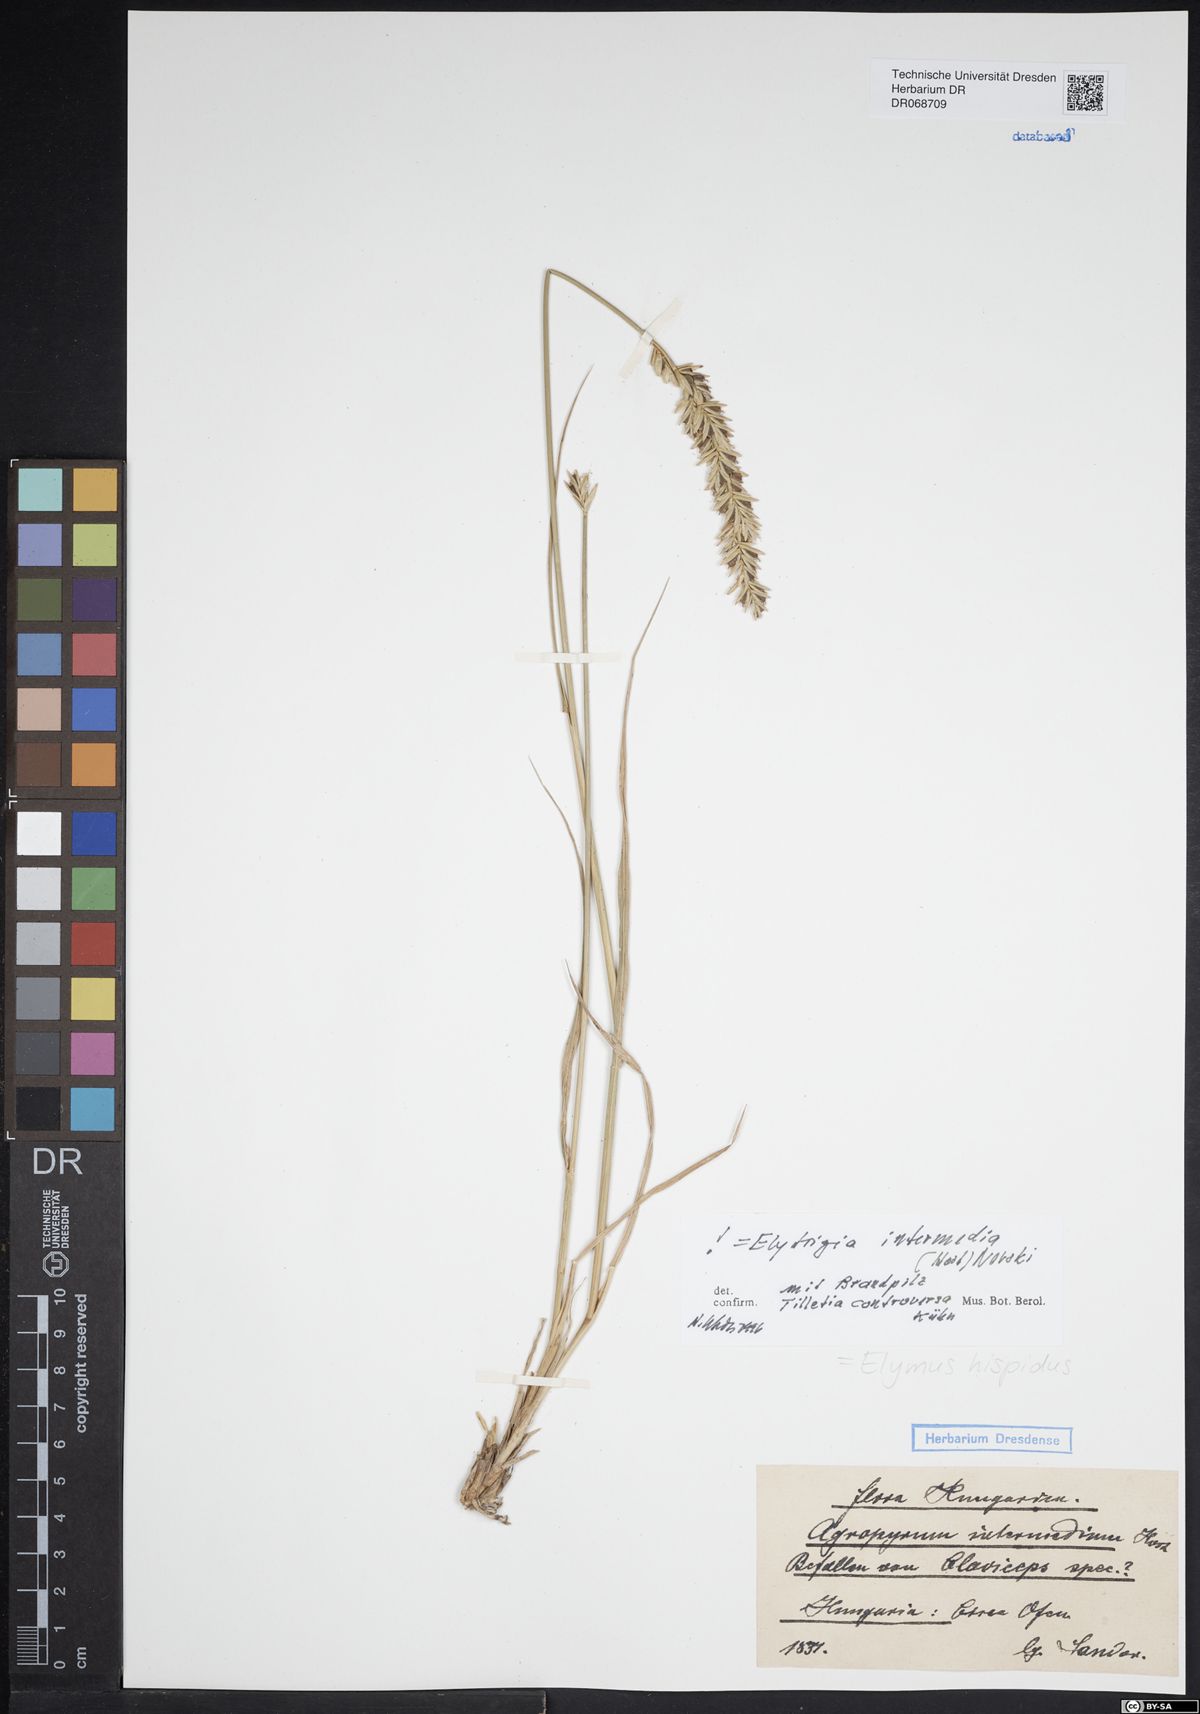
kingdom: Plantae
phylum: Tracheophyta
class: Liliopsida
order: Poales
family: Poaceae
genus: Thinopyrum
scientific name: Thinopyrum intermedium
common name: Intermediate wheatgrass
